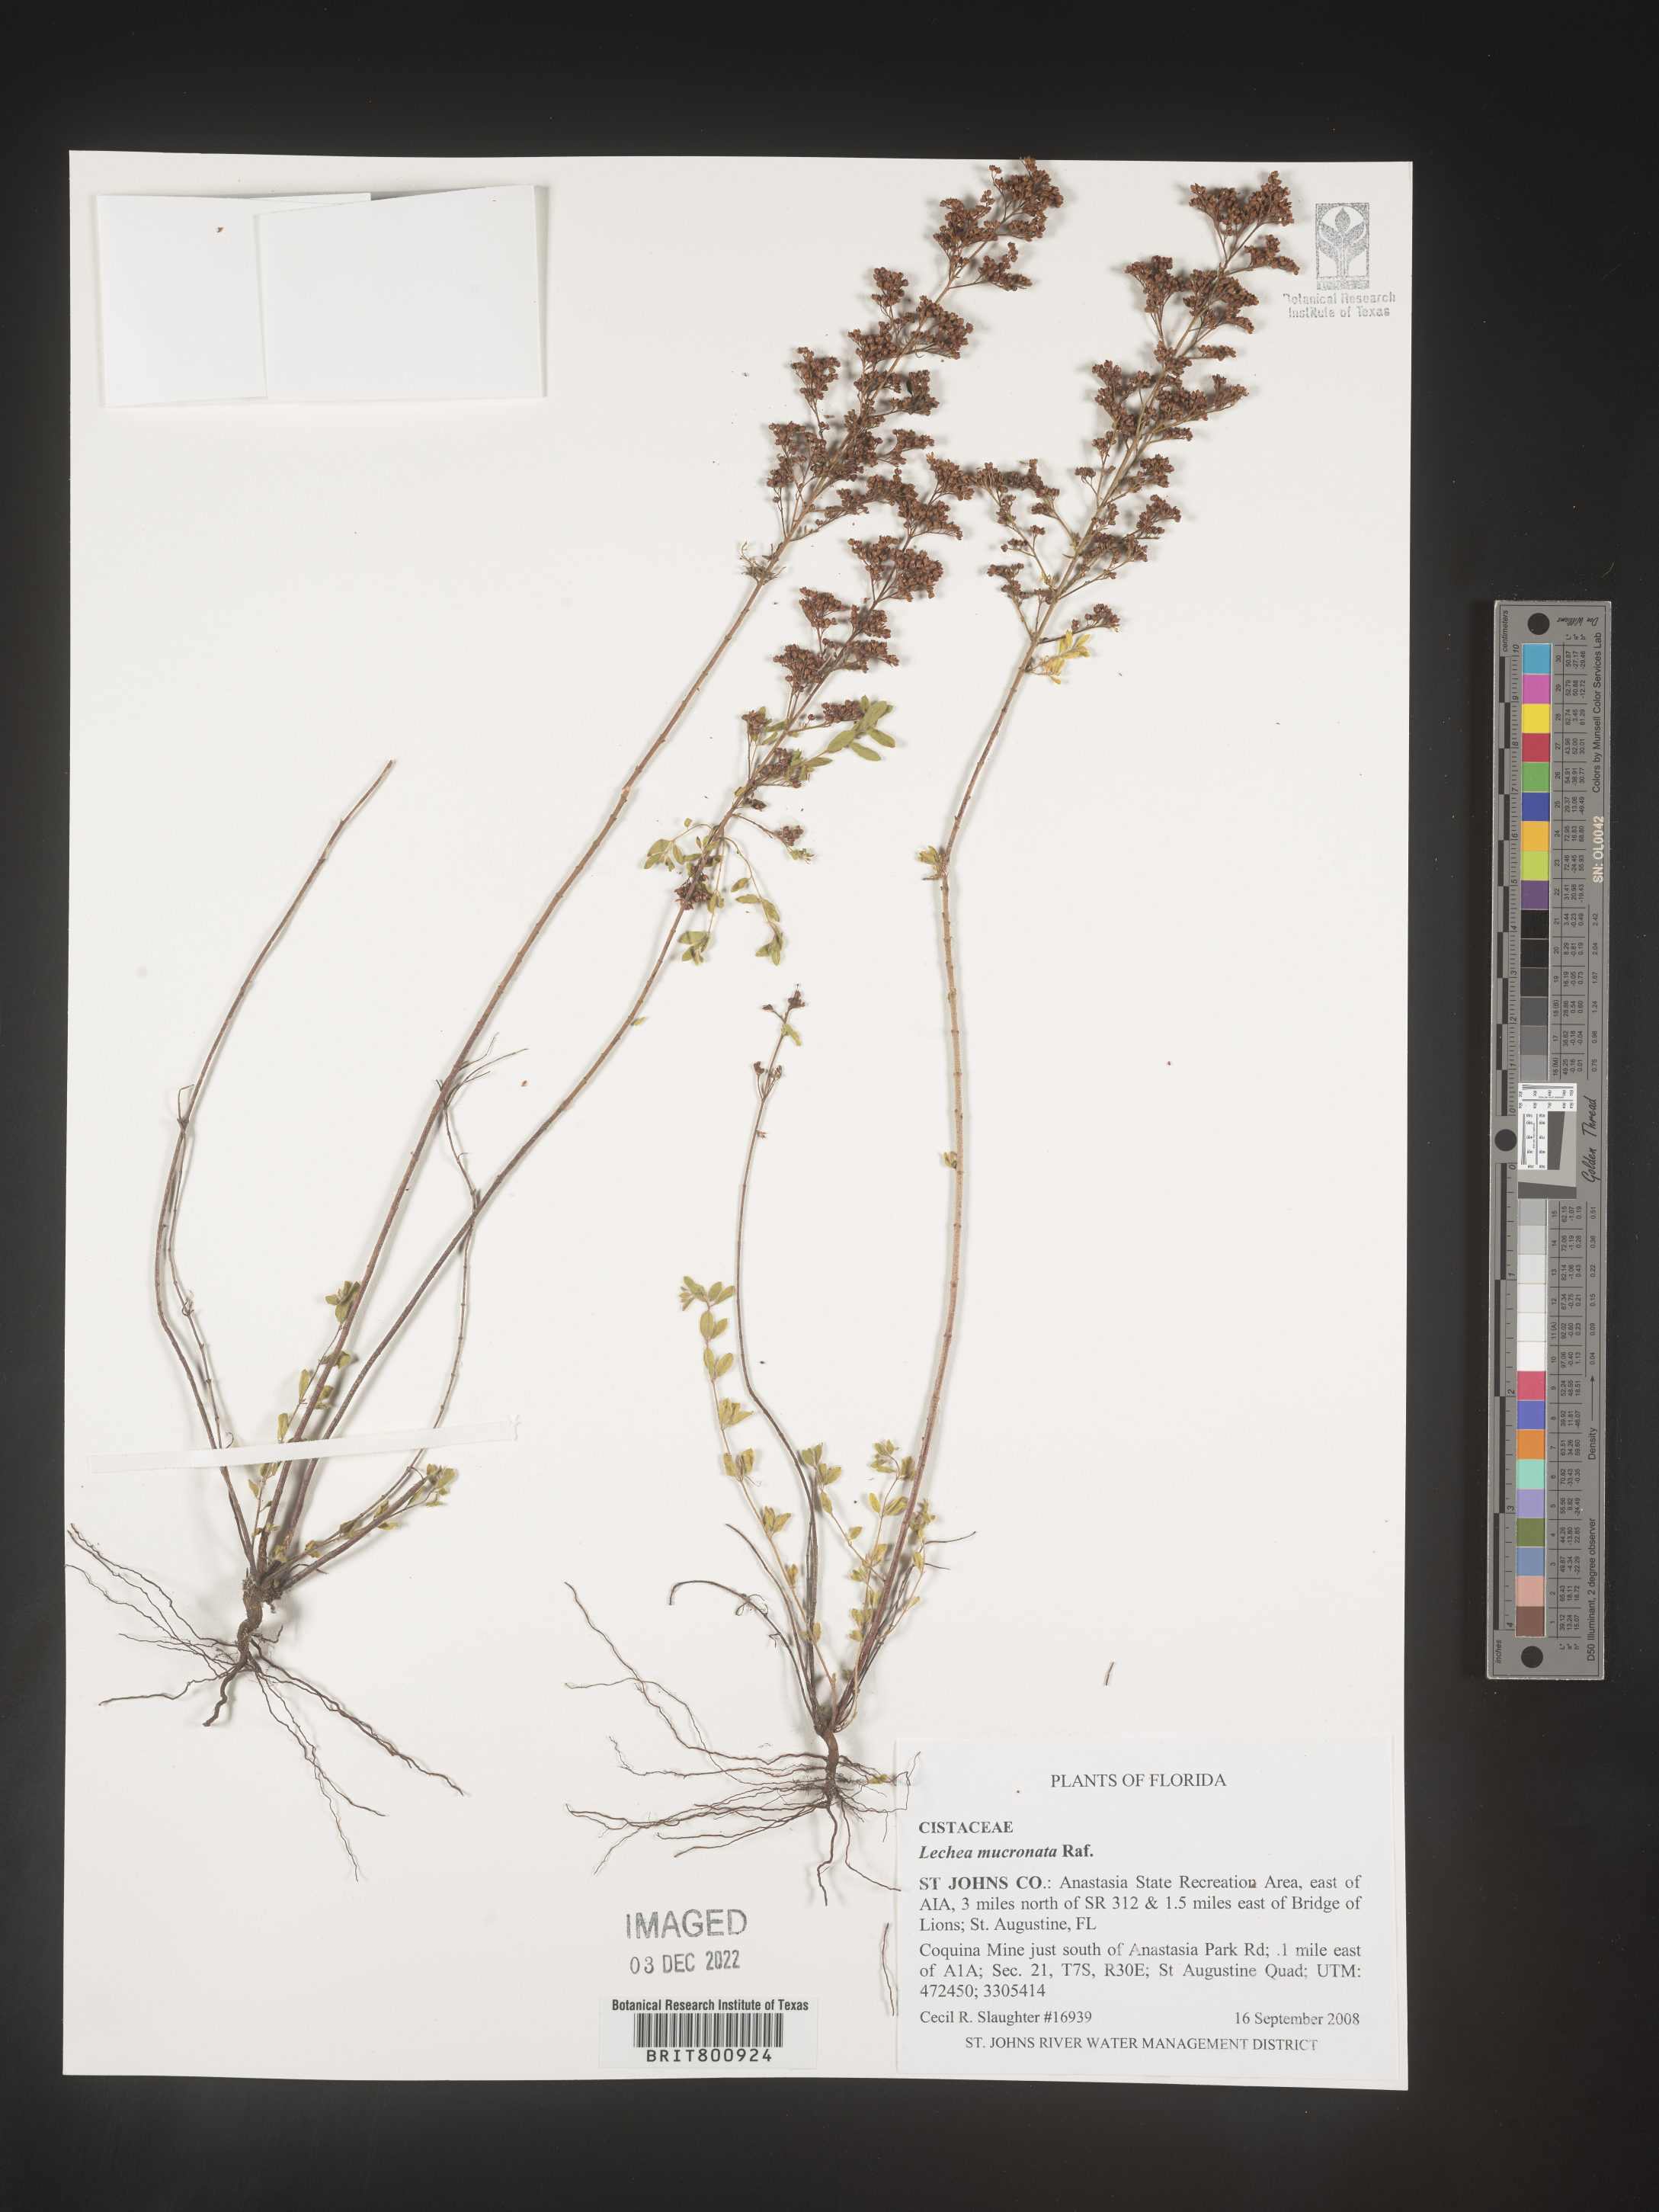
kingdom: Plantae
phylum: Tracheophyta
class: Magnoliopsida
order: Malvales
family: Cistaceae
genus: Lechea
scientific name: Lechea mucronata
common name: Hairy pinweed
